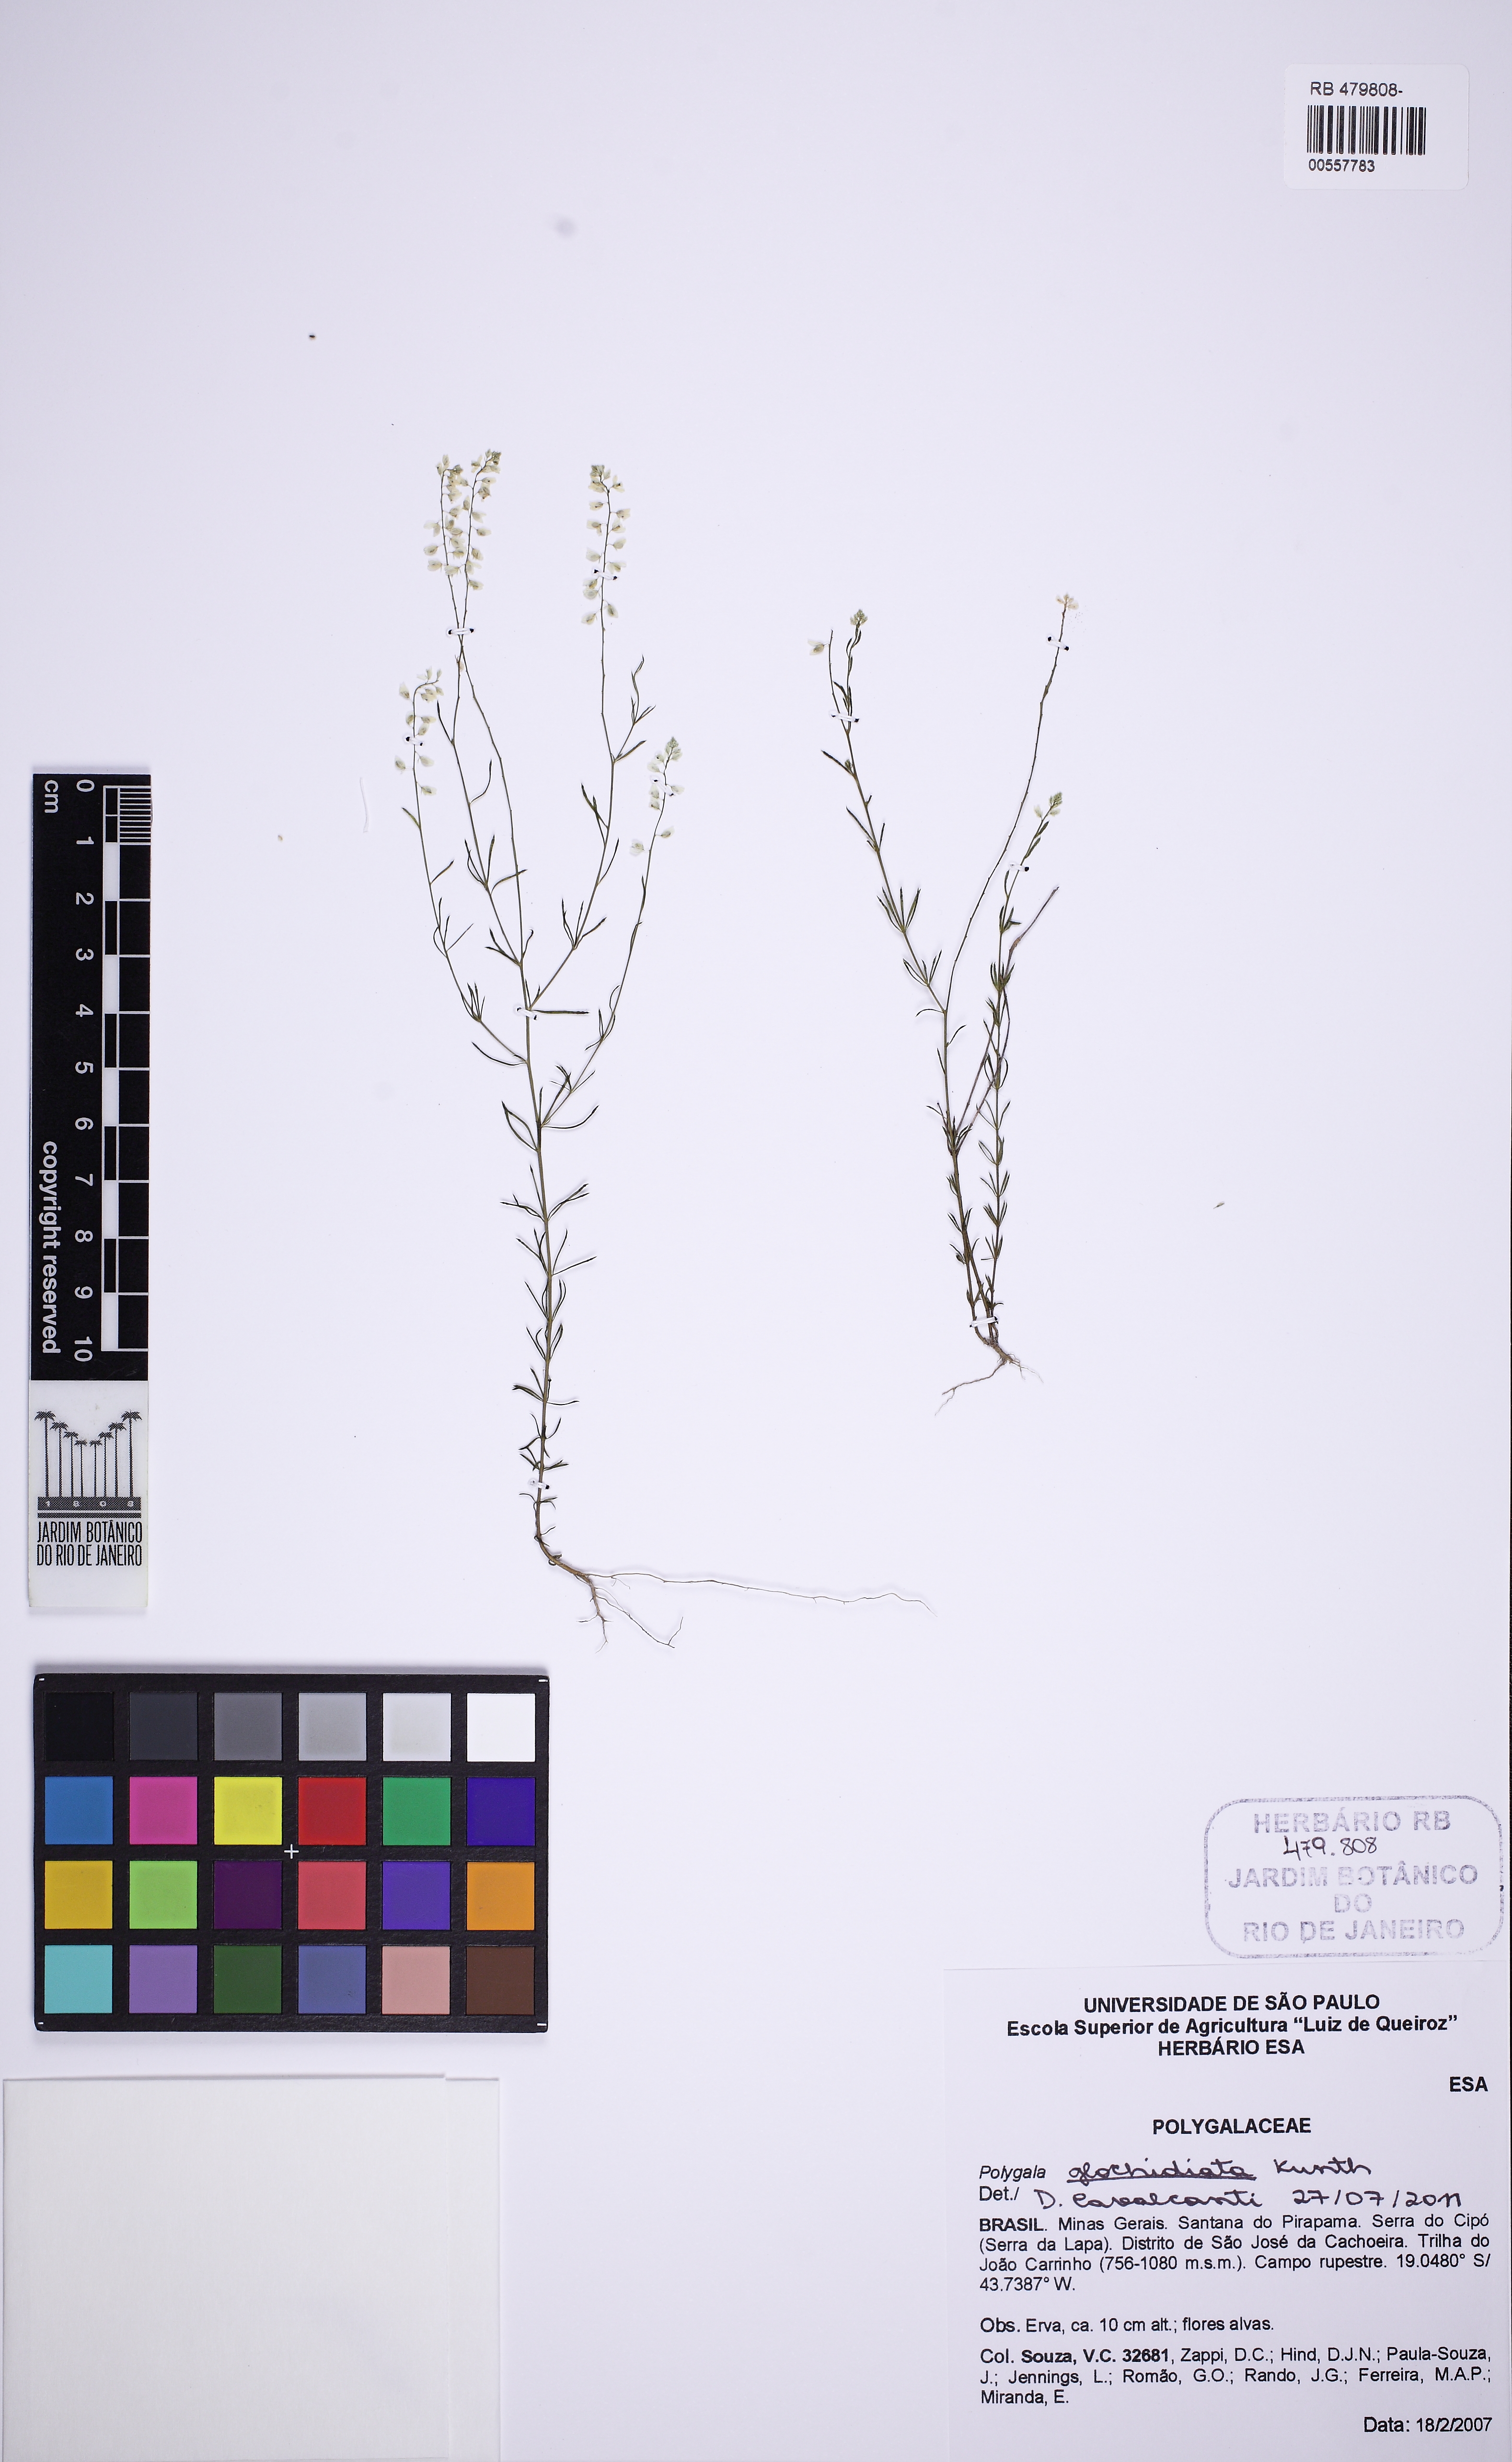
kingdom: Plantae
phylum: Tracheophyta
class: Magnoliopsida
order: Fabales
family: Polygalaceae
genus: Polygala
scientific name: Polygala glochidiata
